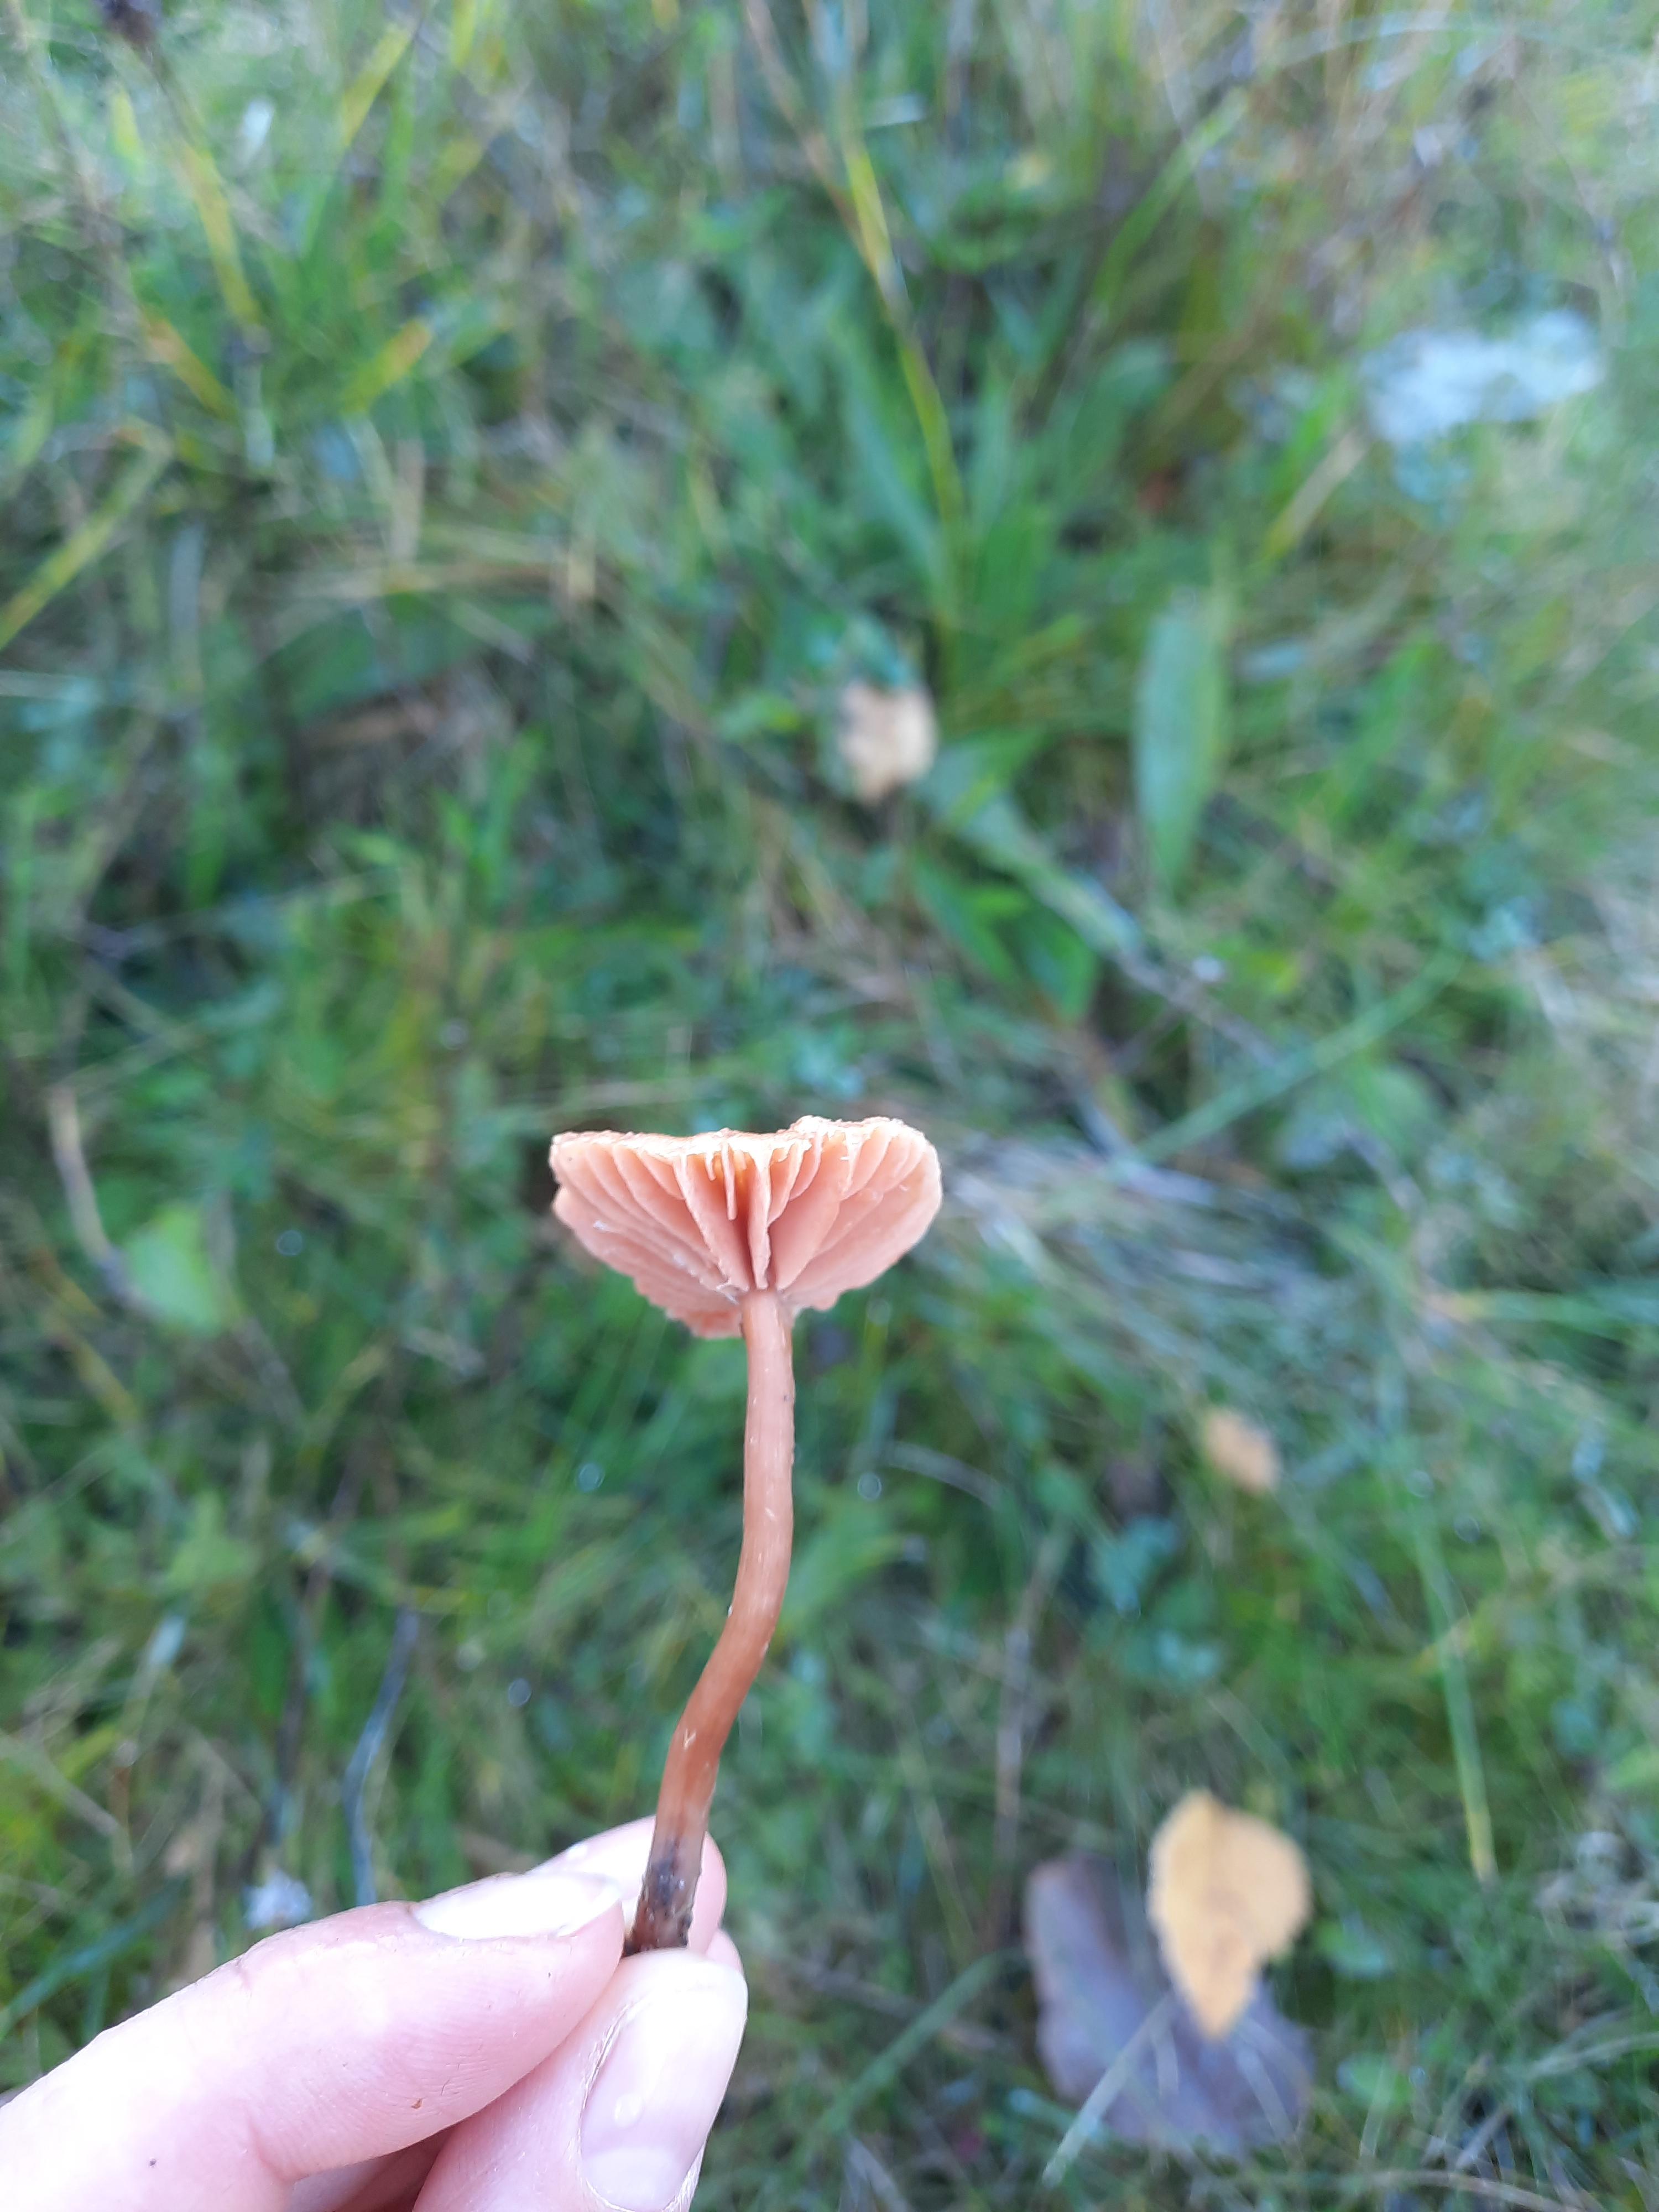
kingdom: Fungi
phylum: Basidiomycota
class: Agaricomycetes
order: Agaricales
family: Hydnangiaceae
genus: Laccaria
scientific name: Laccaria laccata
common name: rød ametysthat
